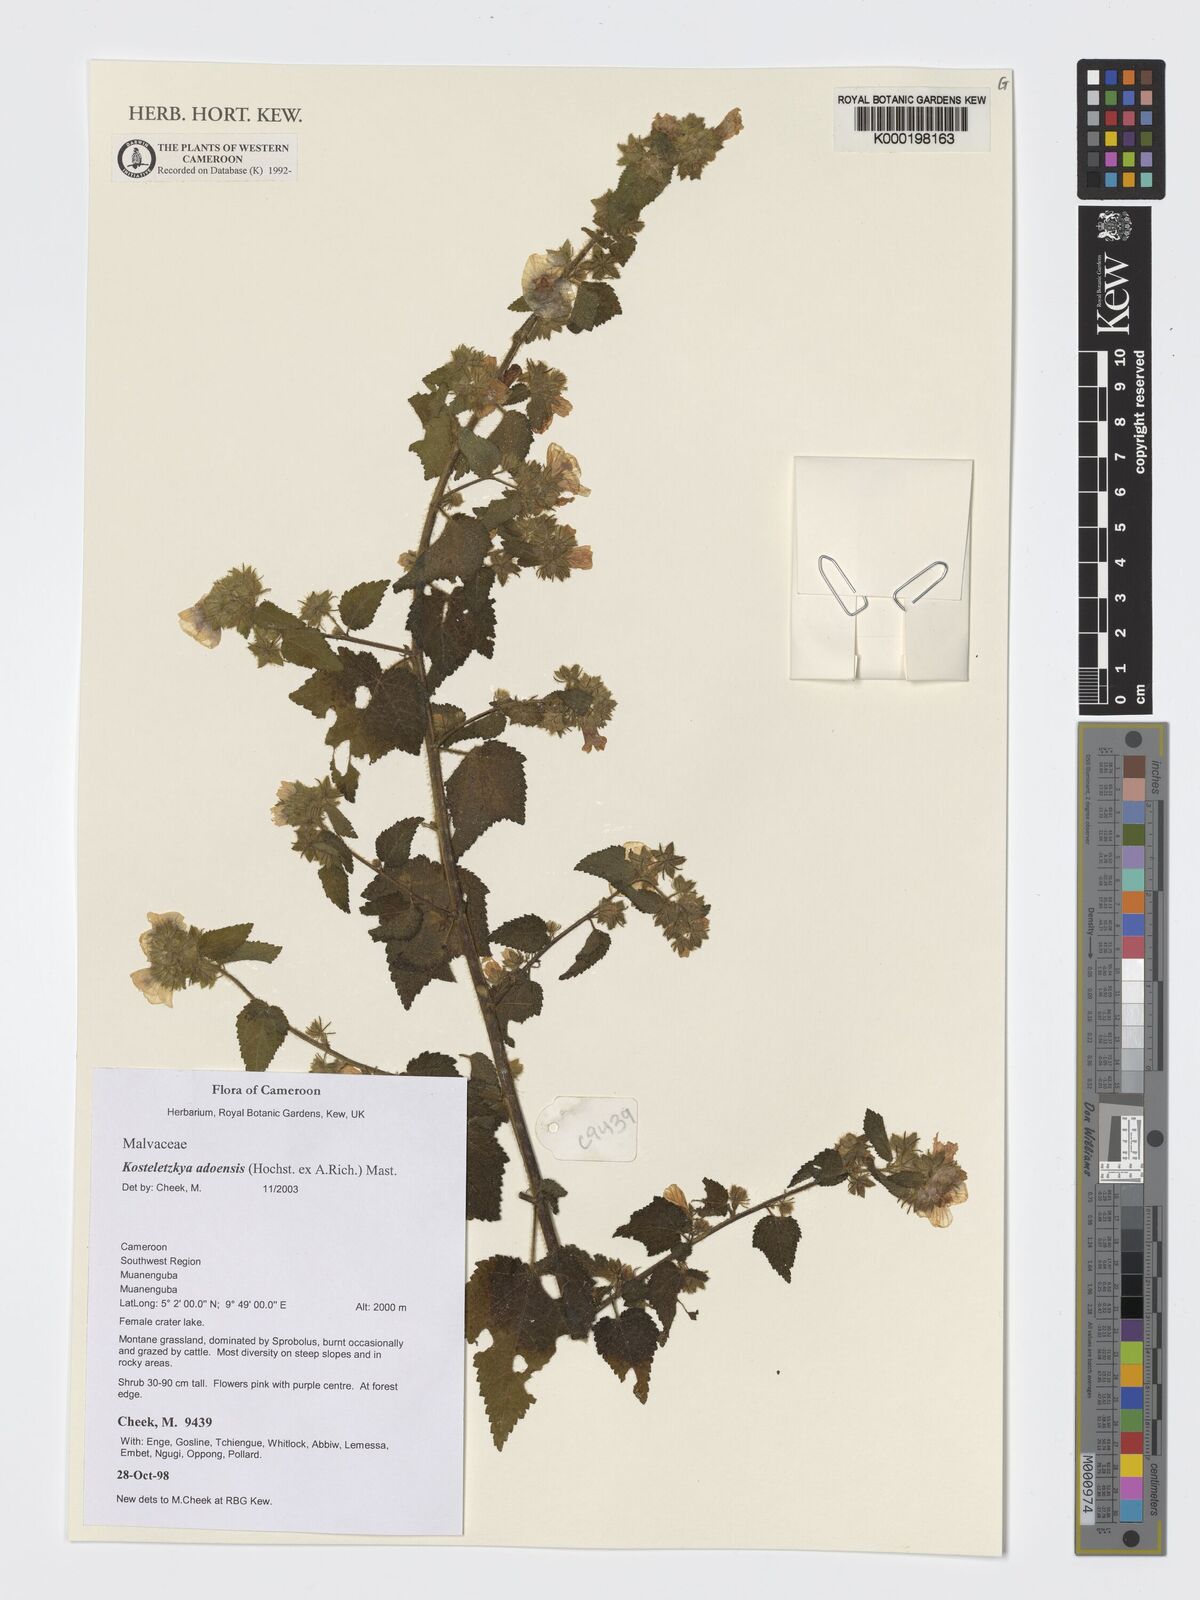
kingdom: Plantae
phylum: Tracheophyta
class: Magnoliopsida
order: Malvales
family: Malvaceae
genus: Kosteletzkya
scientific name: Kosteletzkya adoensis
